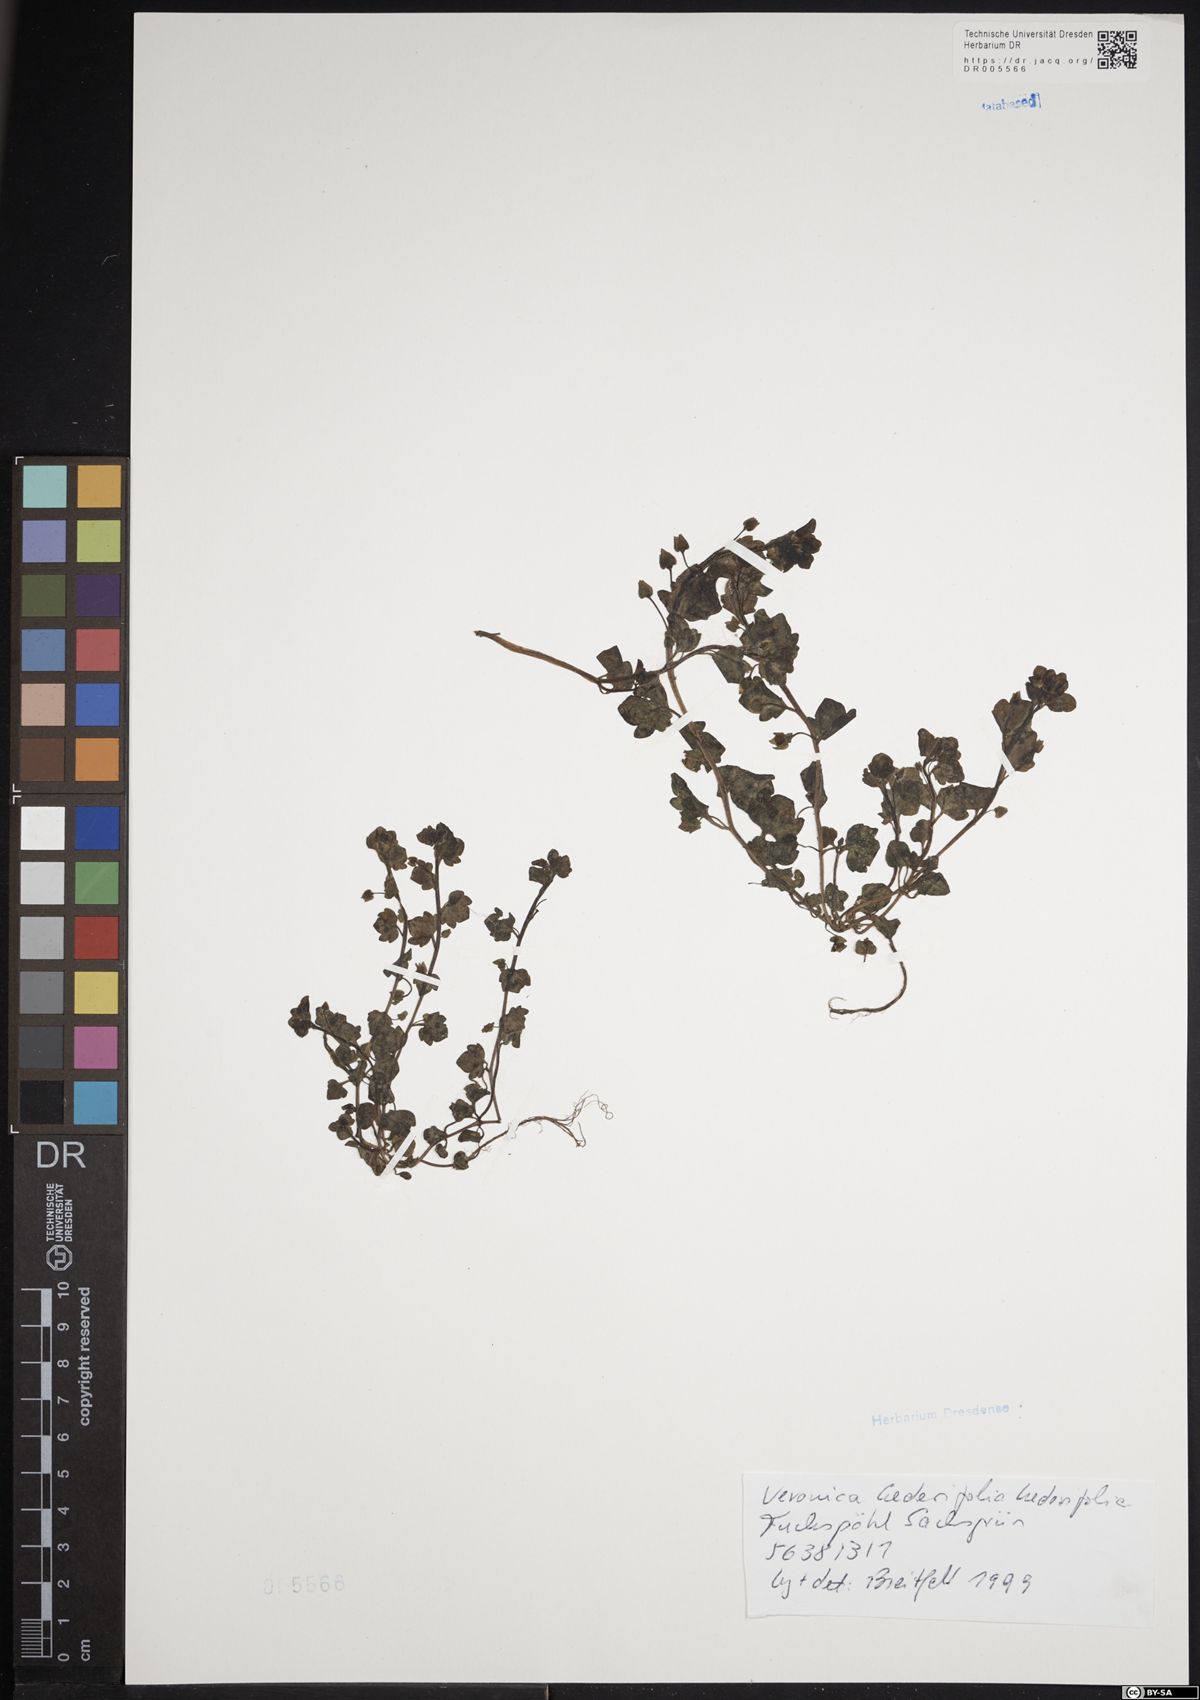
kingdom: Plantae
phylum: Tracheophyta
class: Magnoliopsida
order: Lamiales
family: Plantaginaceae
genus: Veronica
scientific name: Veronica hederifolia
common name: Ivy-leaved speedwell
